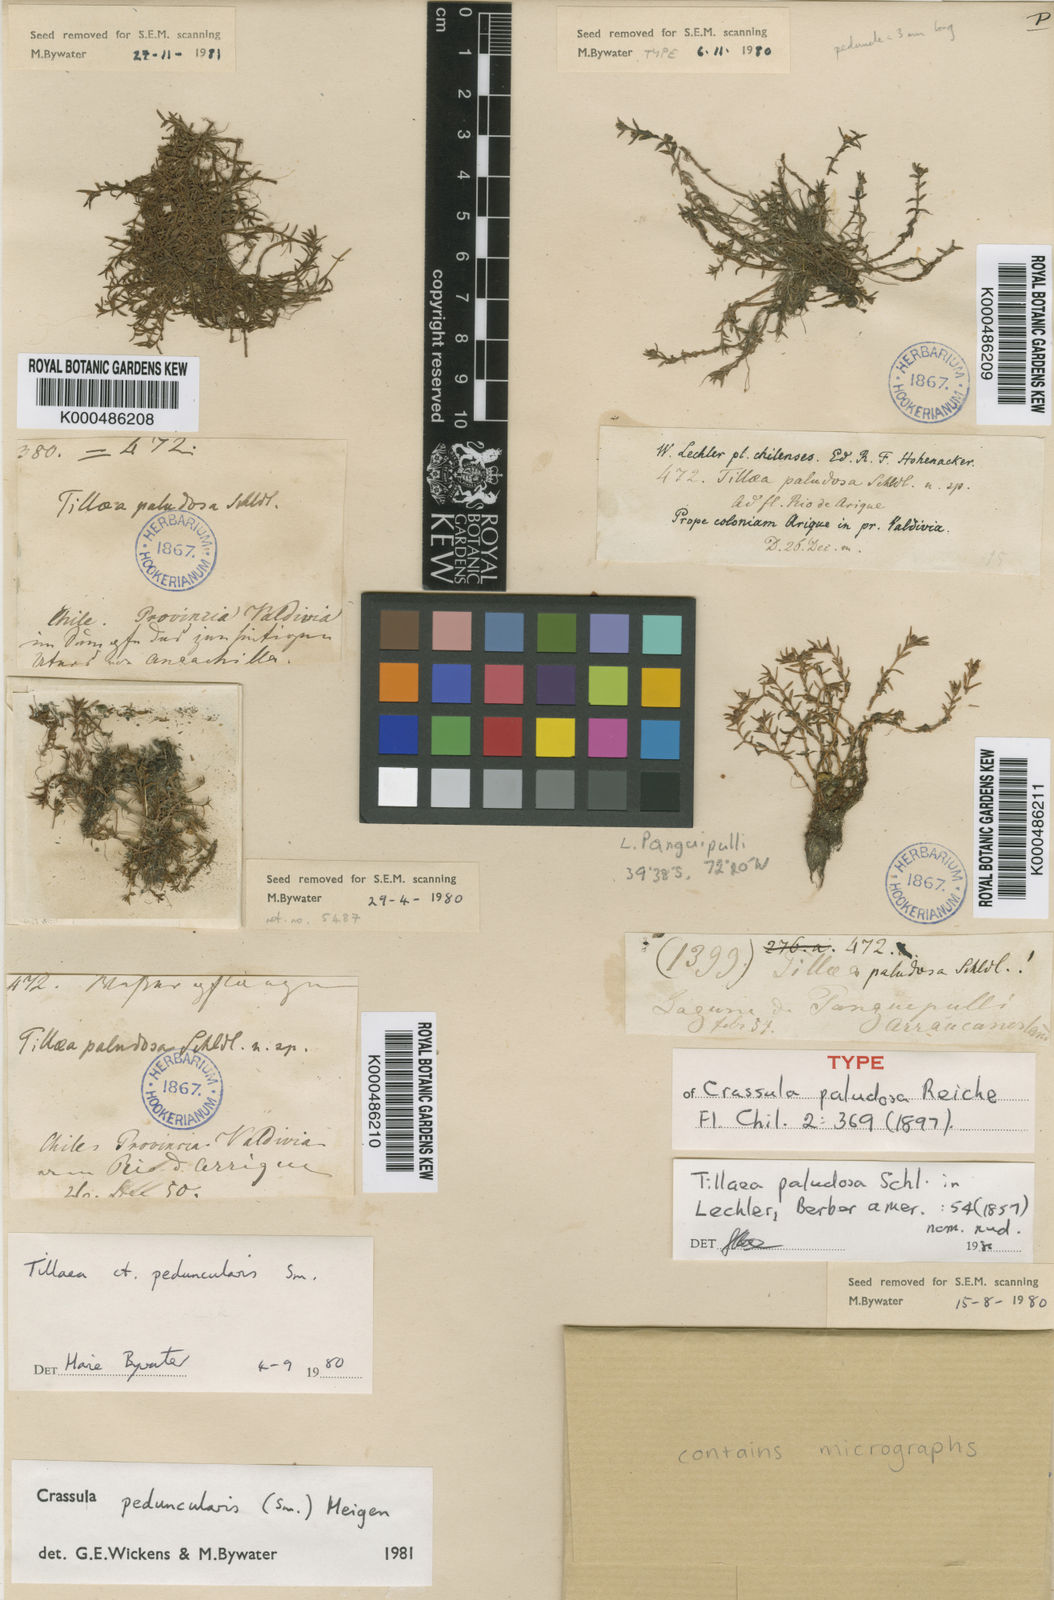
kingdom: Plantae
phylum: Tracheophyta
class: Magnoliopsida
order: Saxifragales
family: Crassulaceae
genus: Crassula
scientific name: Crassula peduncularis
